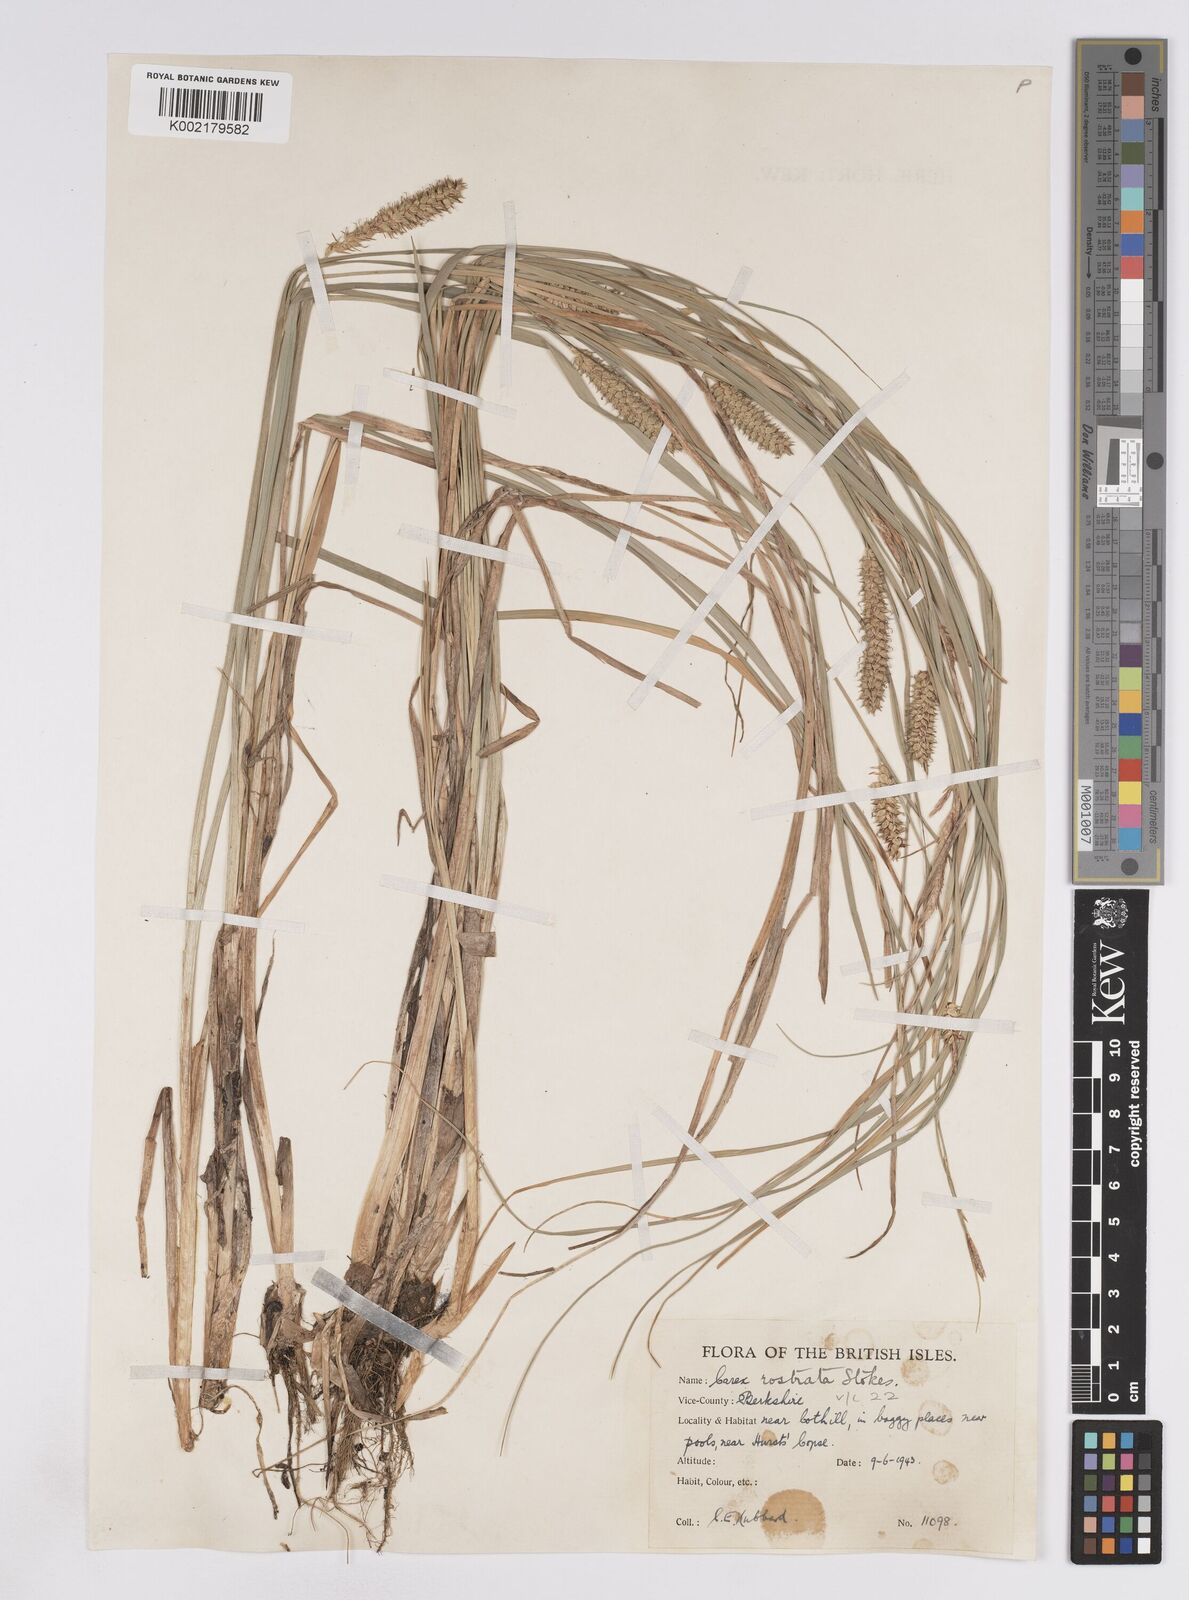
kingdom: Plantae
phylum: Tracheophyta
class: Liliopsida
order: Poales
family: Cyperaceae
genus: Carex
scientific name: Carex rostrata
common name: Bottle sedge
